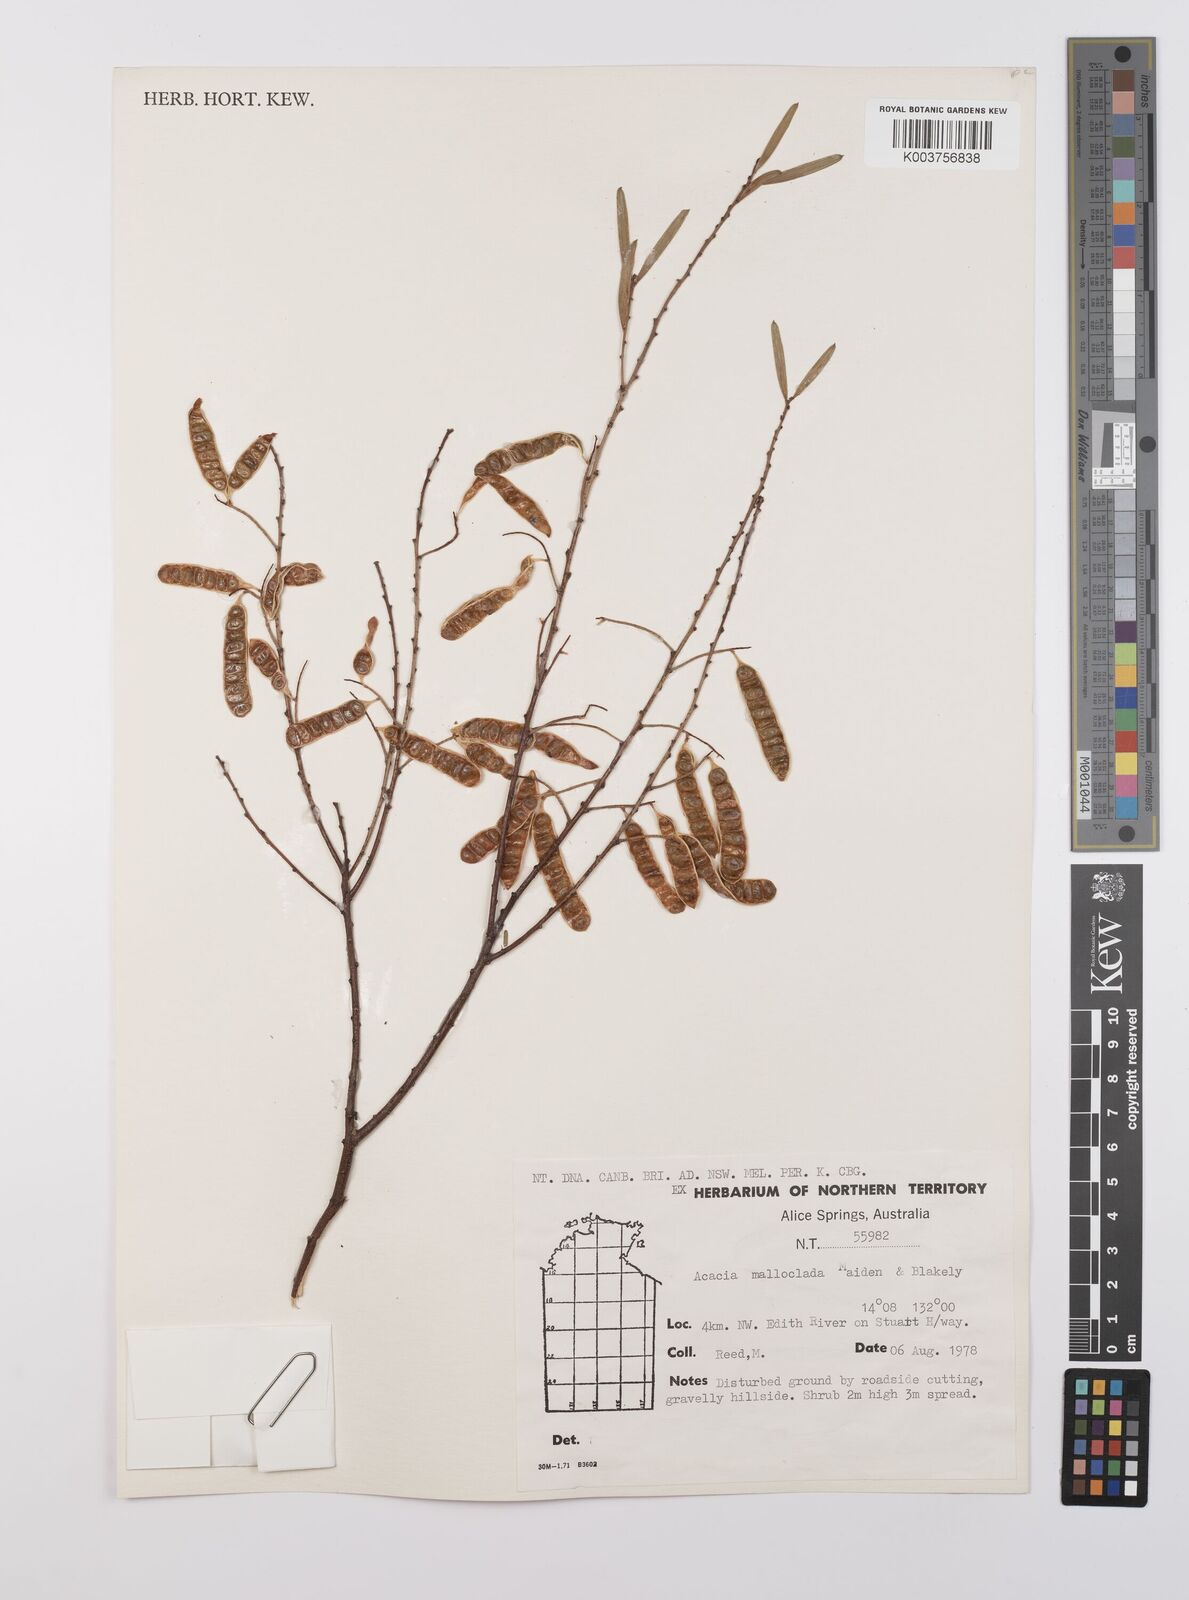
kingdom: Plantae
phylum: Tracheophyta
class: Magnoliopsida
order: Fabales
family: Fabaceae
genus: Acacia
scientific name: Acacia malloclada
